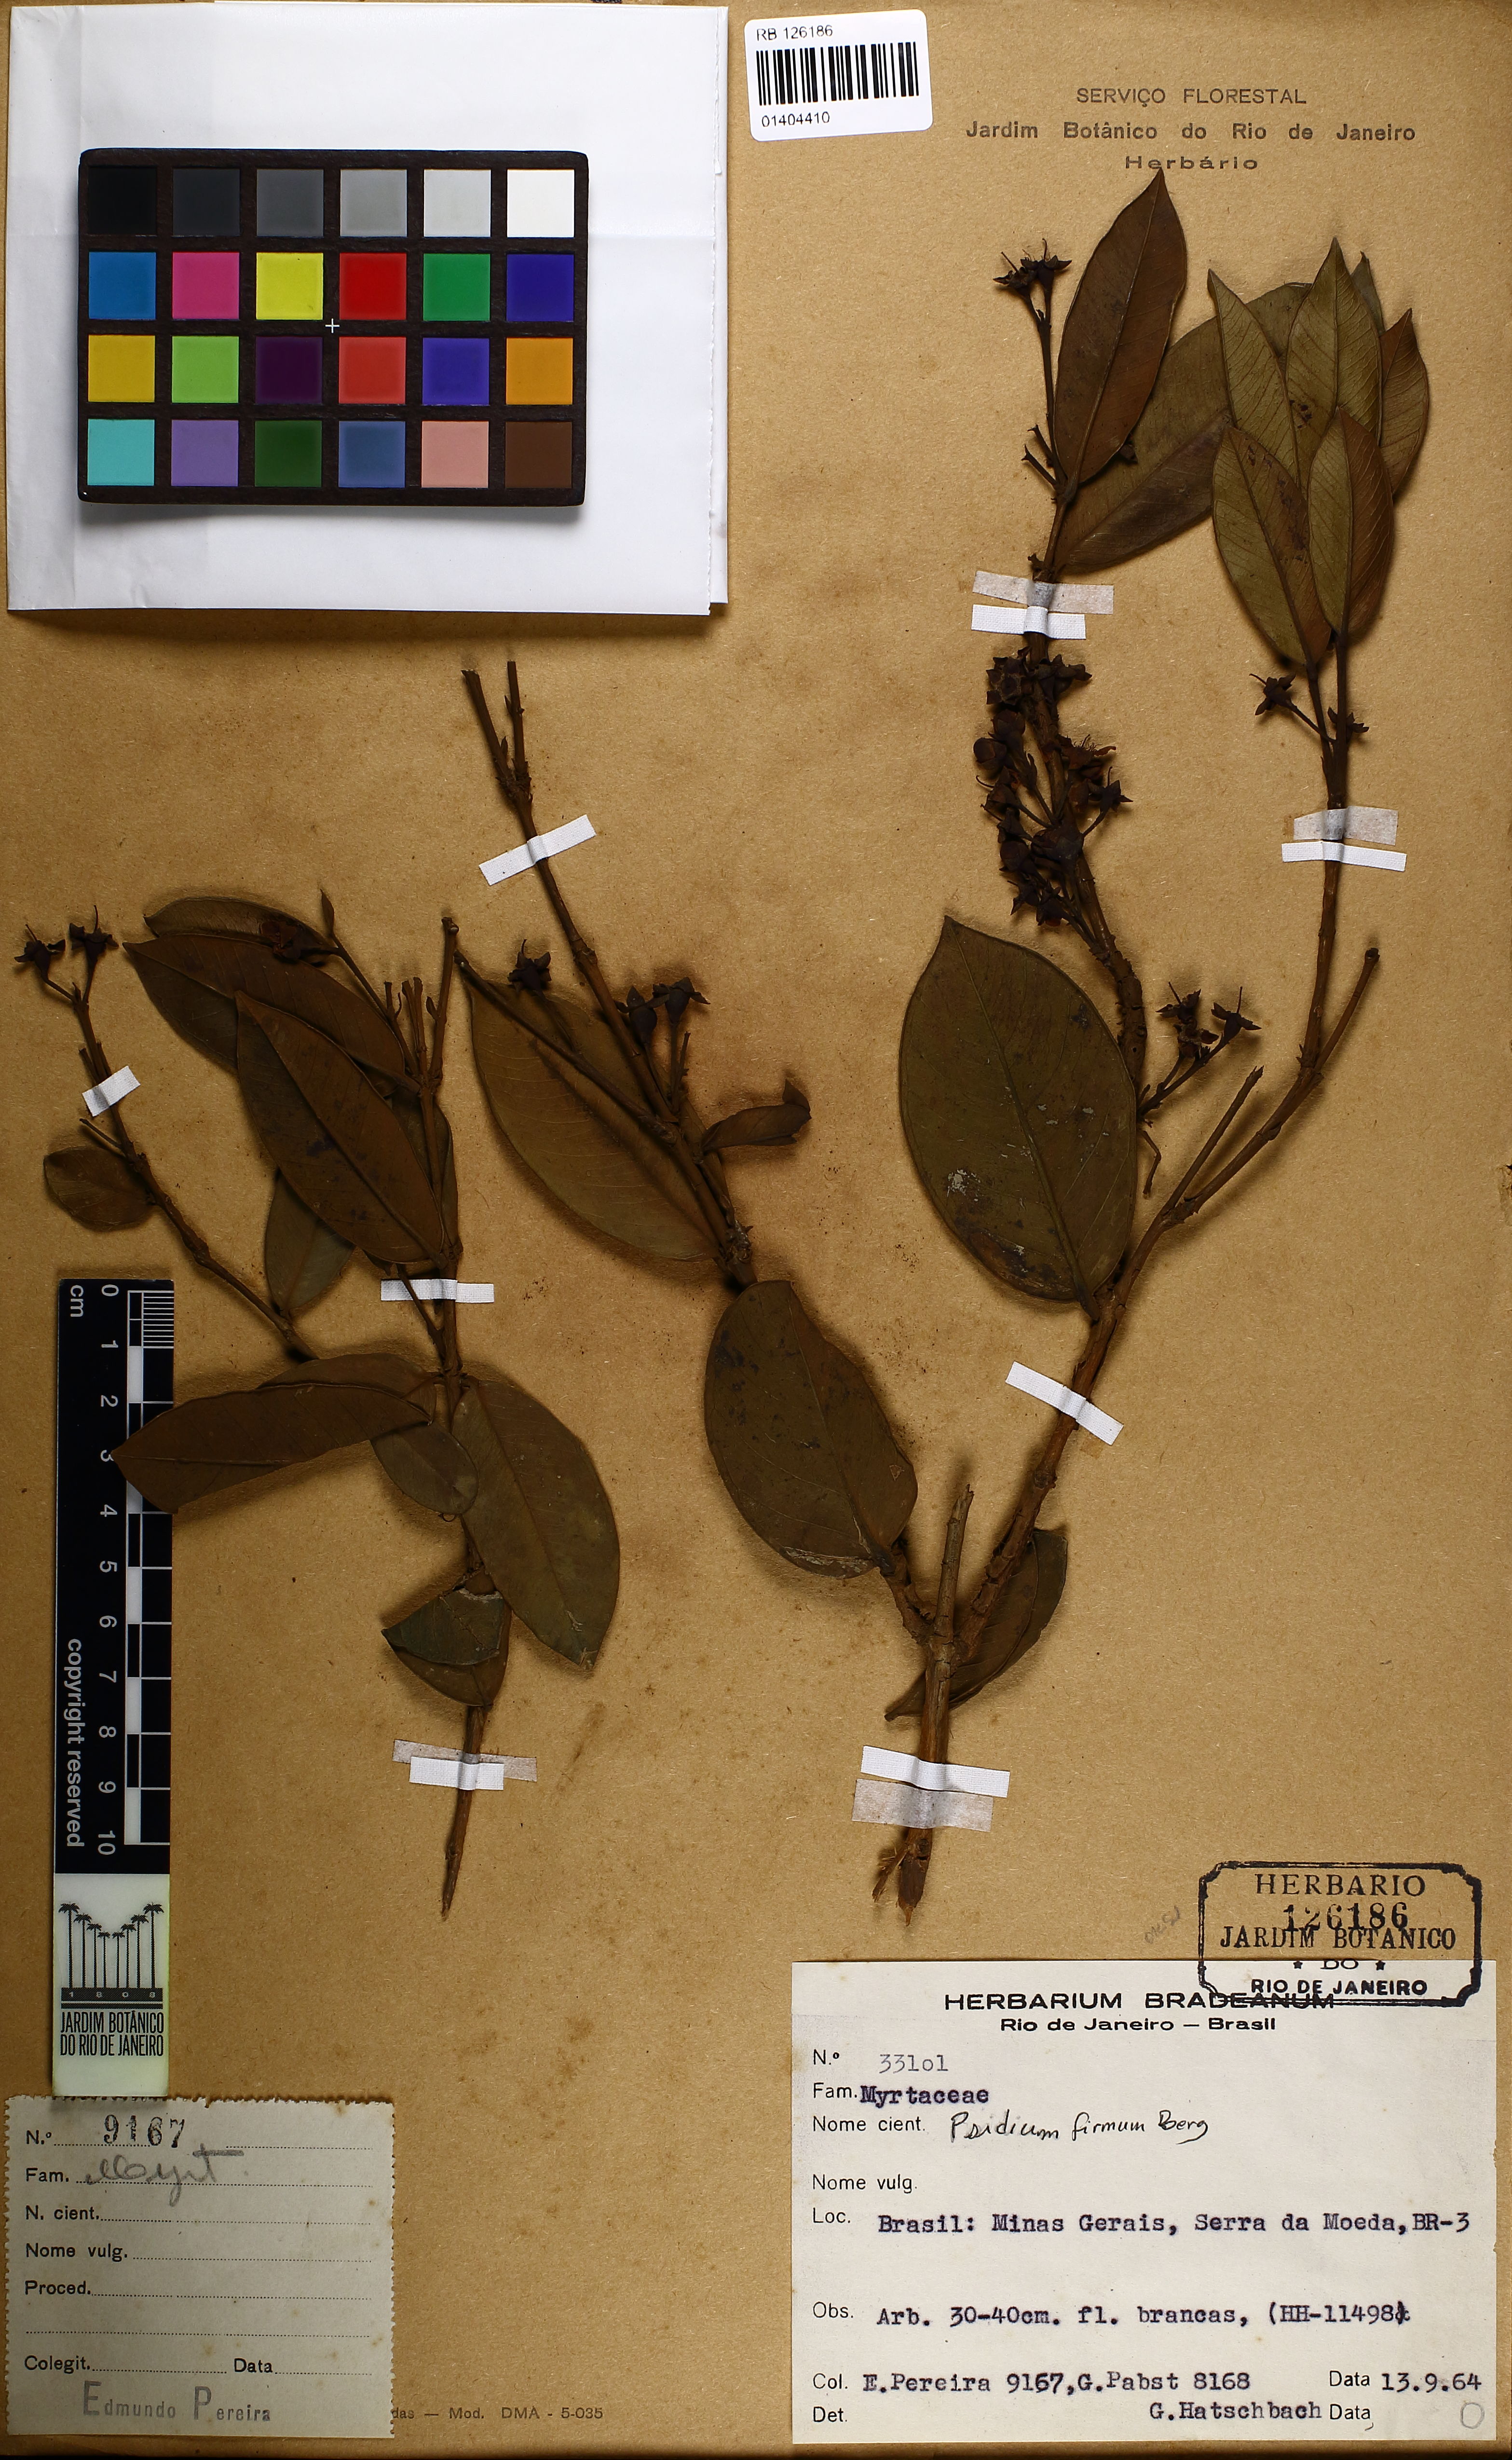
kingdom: Plantae
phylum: Tracheophyta
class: Magnoliopsida
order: Myrtales
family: Myrtaceae
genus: Psidium
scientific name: Psidium firmum
